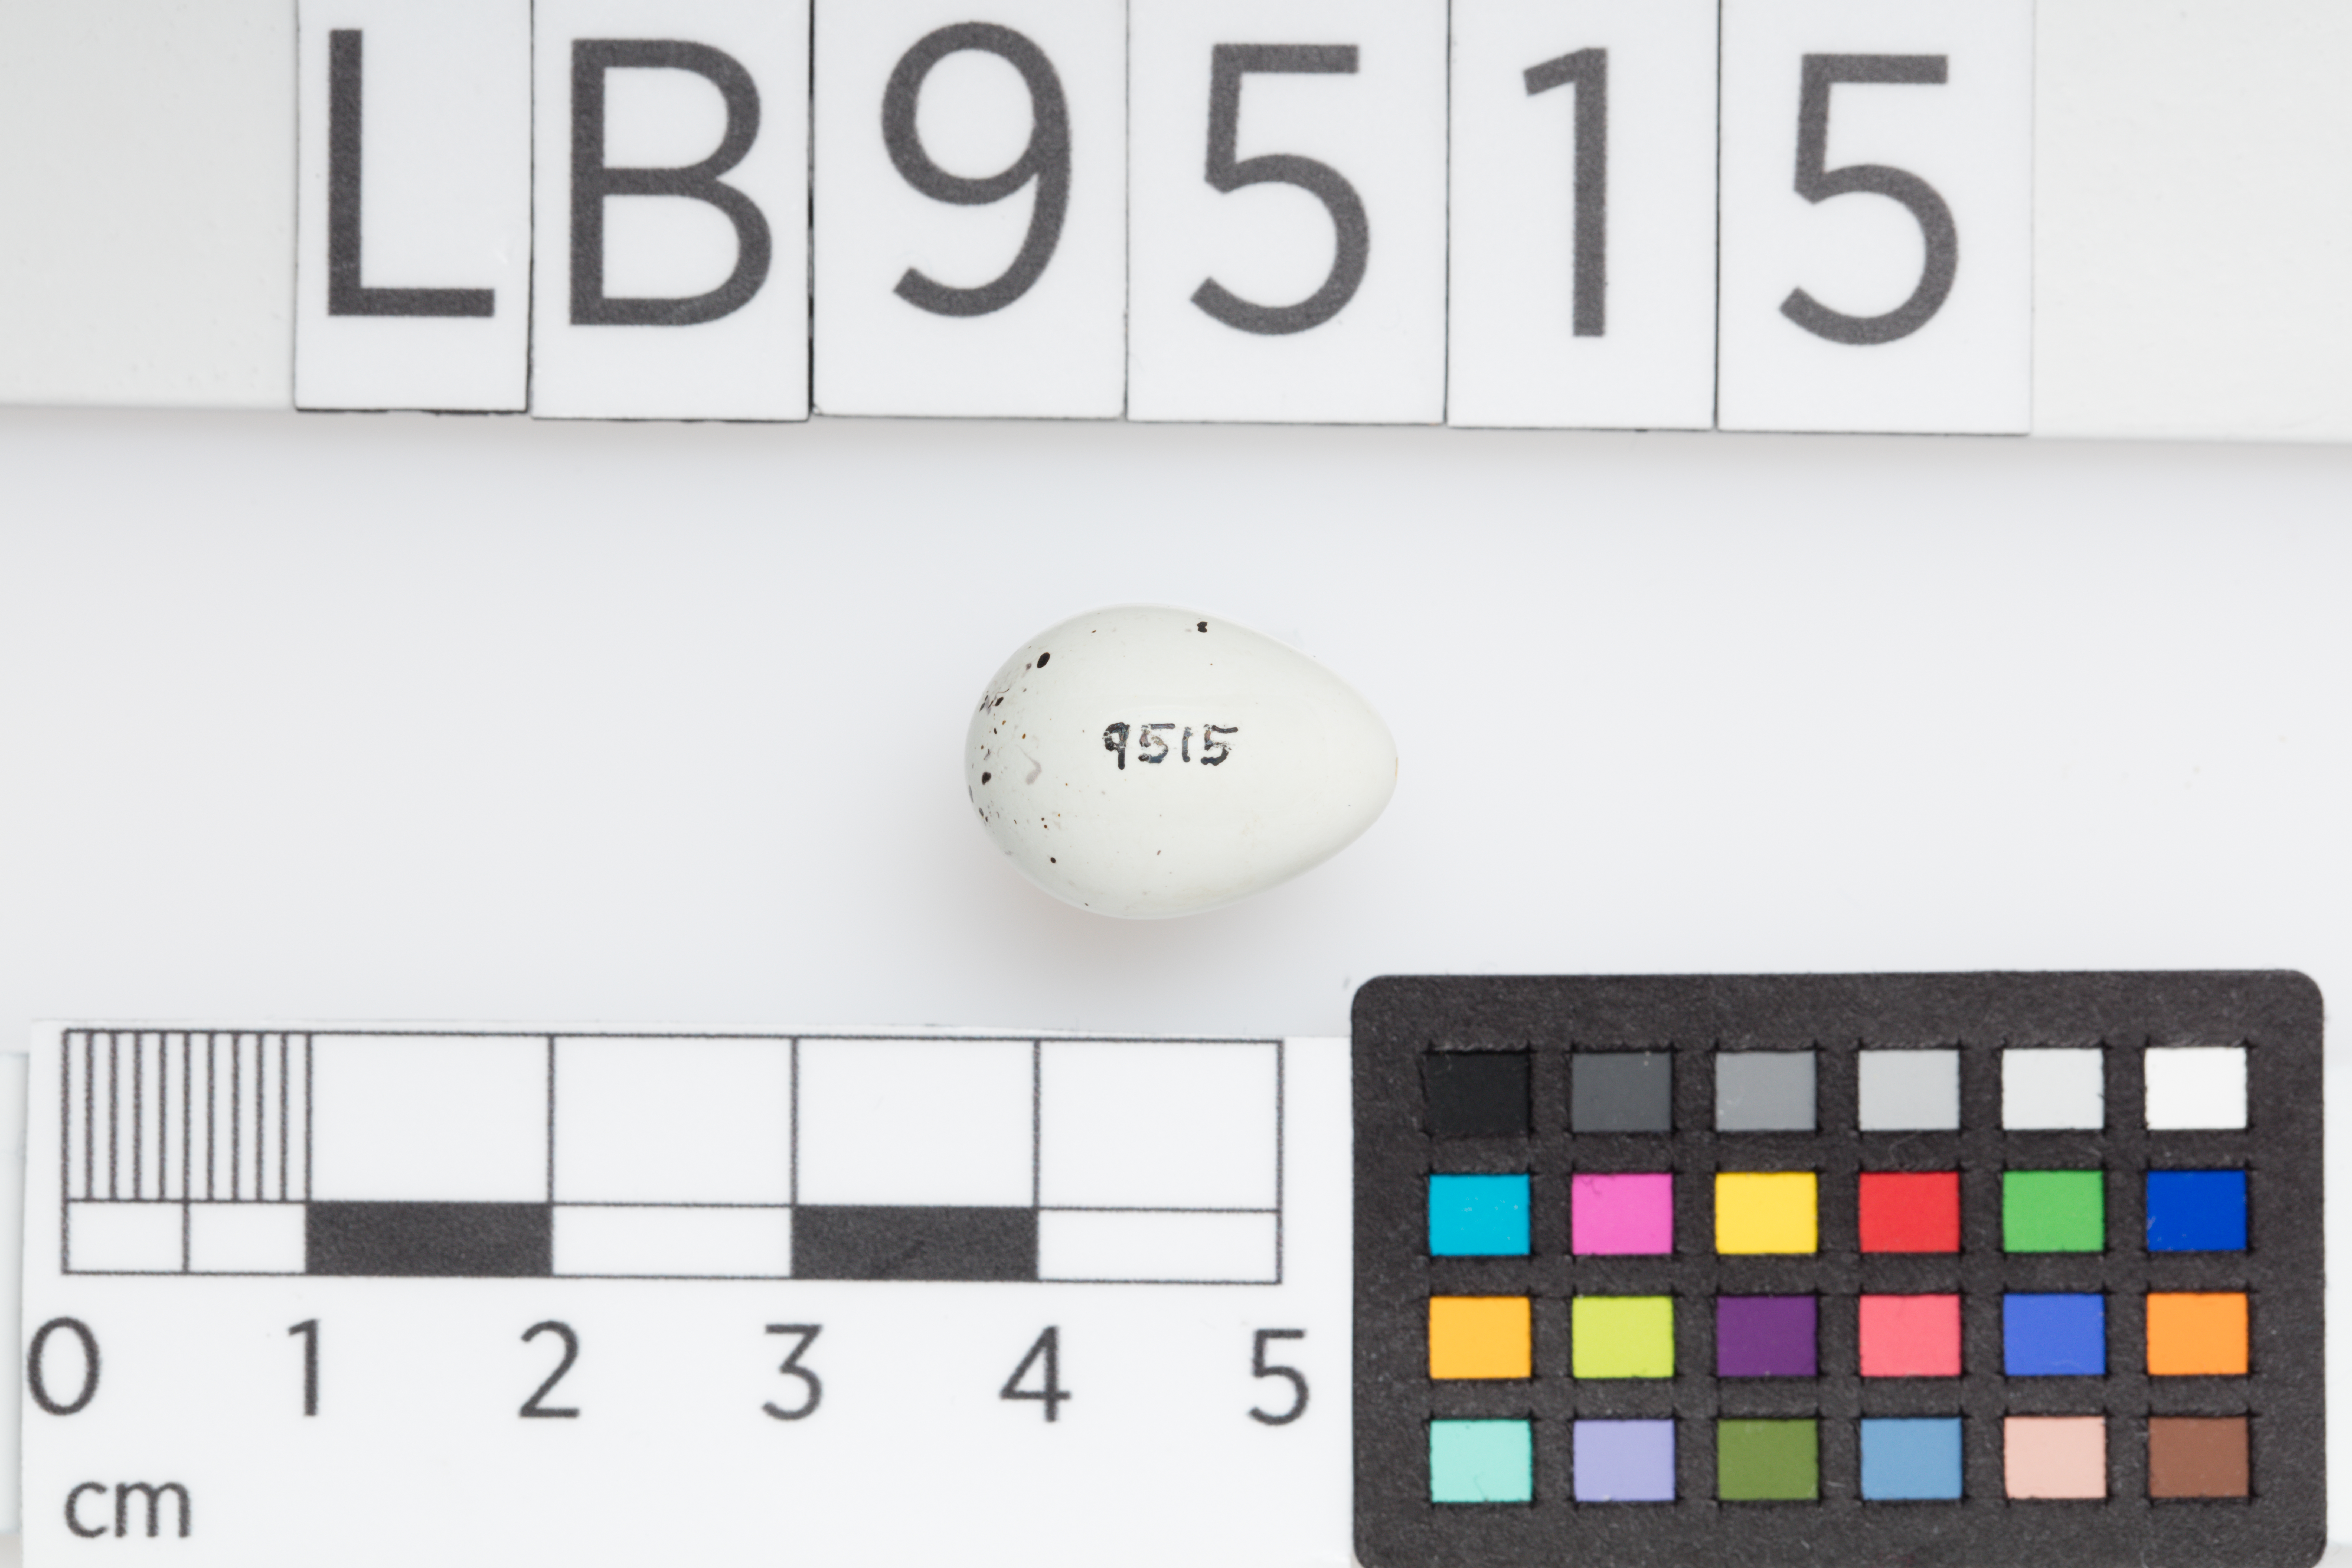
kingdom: Animalia
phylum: Chordata
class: Aves
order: Passeriformes
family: Fringillidae
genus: Carduelis
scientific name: Carduelis carduelis
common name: European goldfinch
